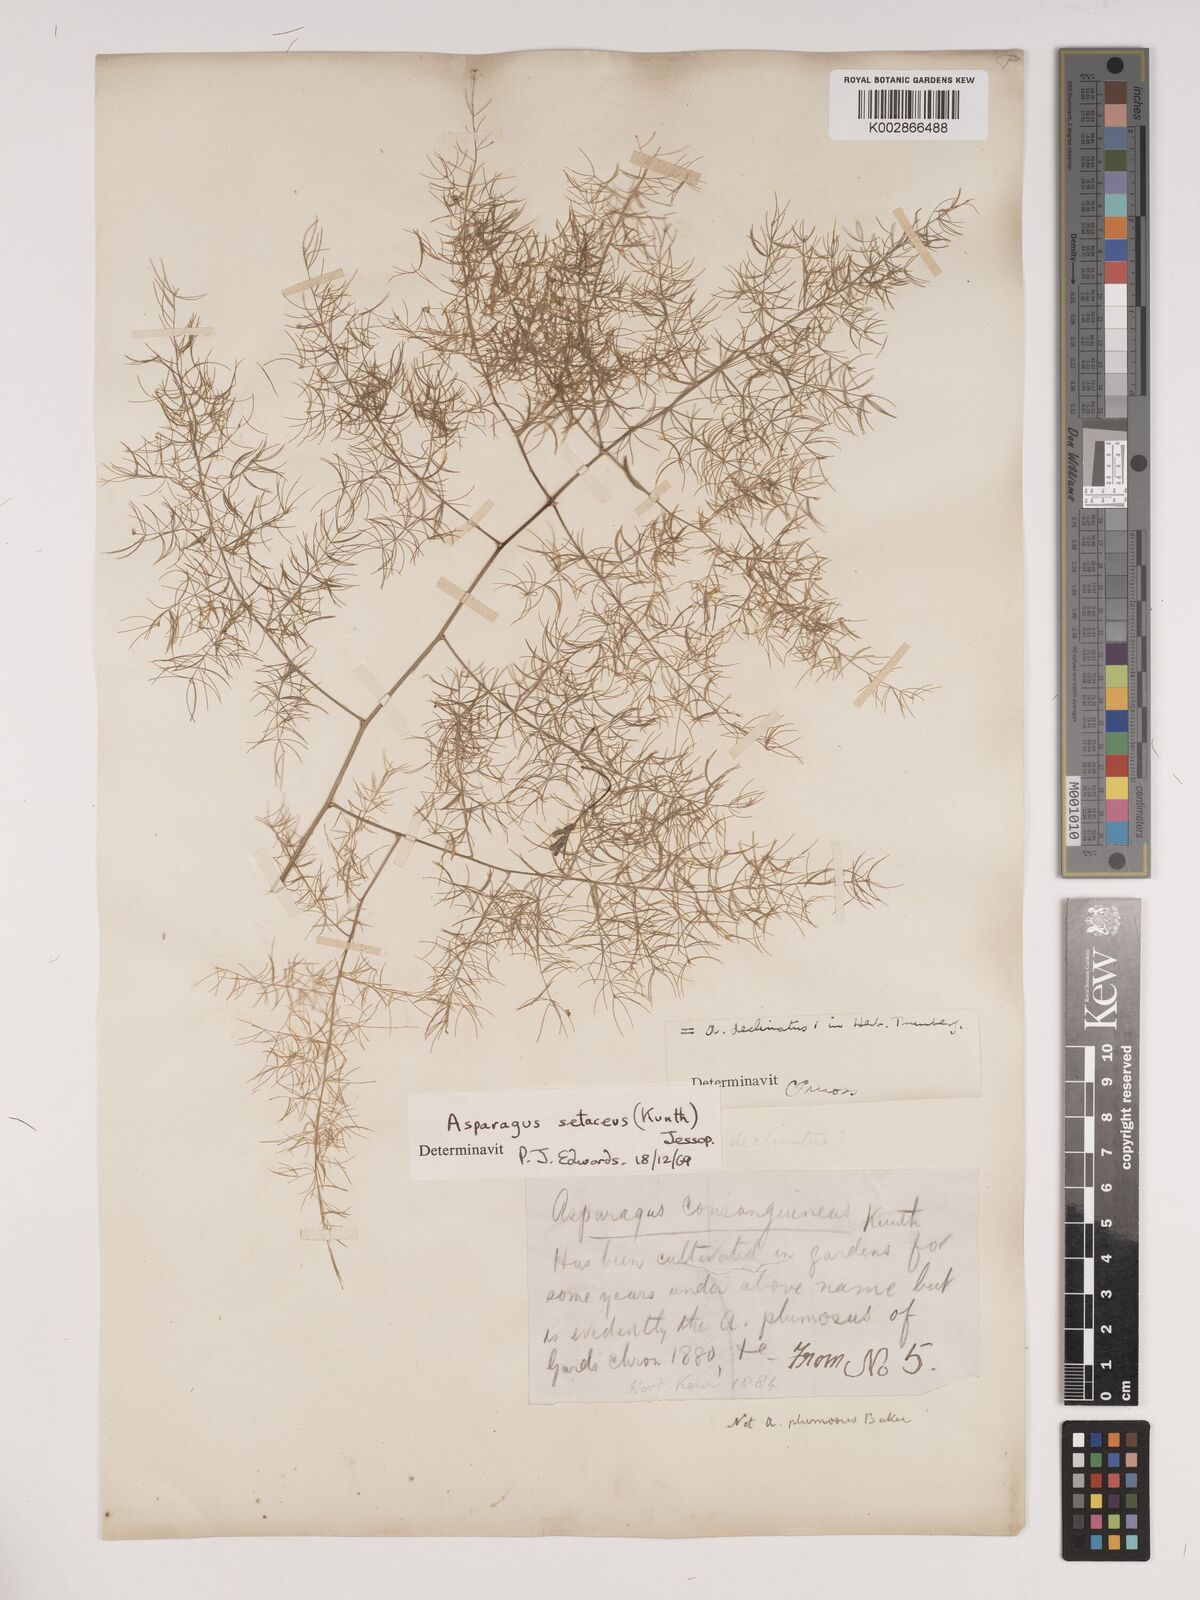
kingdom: Plantae
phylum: Tracheophyta
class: Liliopsida
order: Asparagales
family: Asparagaceae
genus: Asparagus
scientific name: Asparagus setaceus
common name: Common asparagus fern
